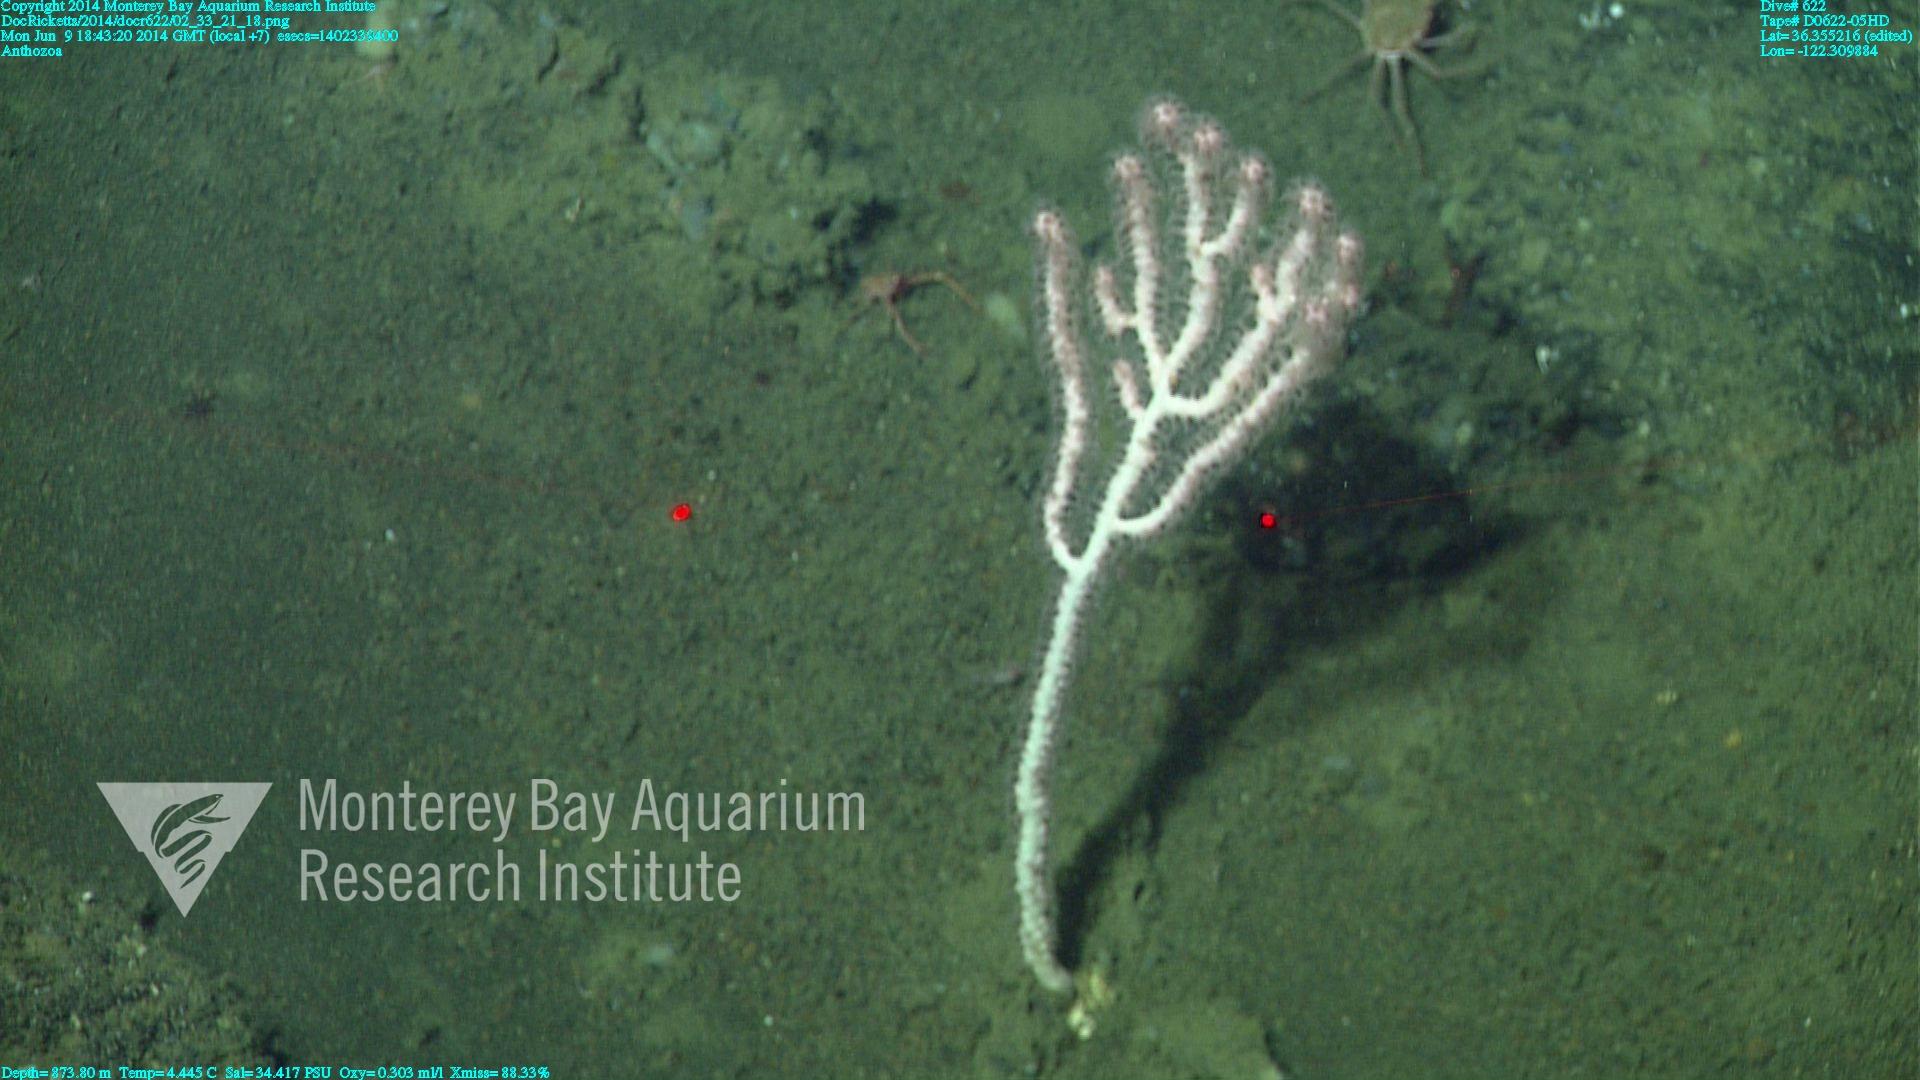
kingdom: Animalia
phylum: Cnidaria
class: Anthozoa
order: Scleralcyonacea
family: Coralliidae
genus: Sibogagorgia
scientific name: Sibogagorgia cauliflora
